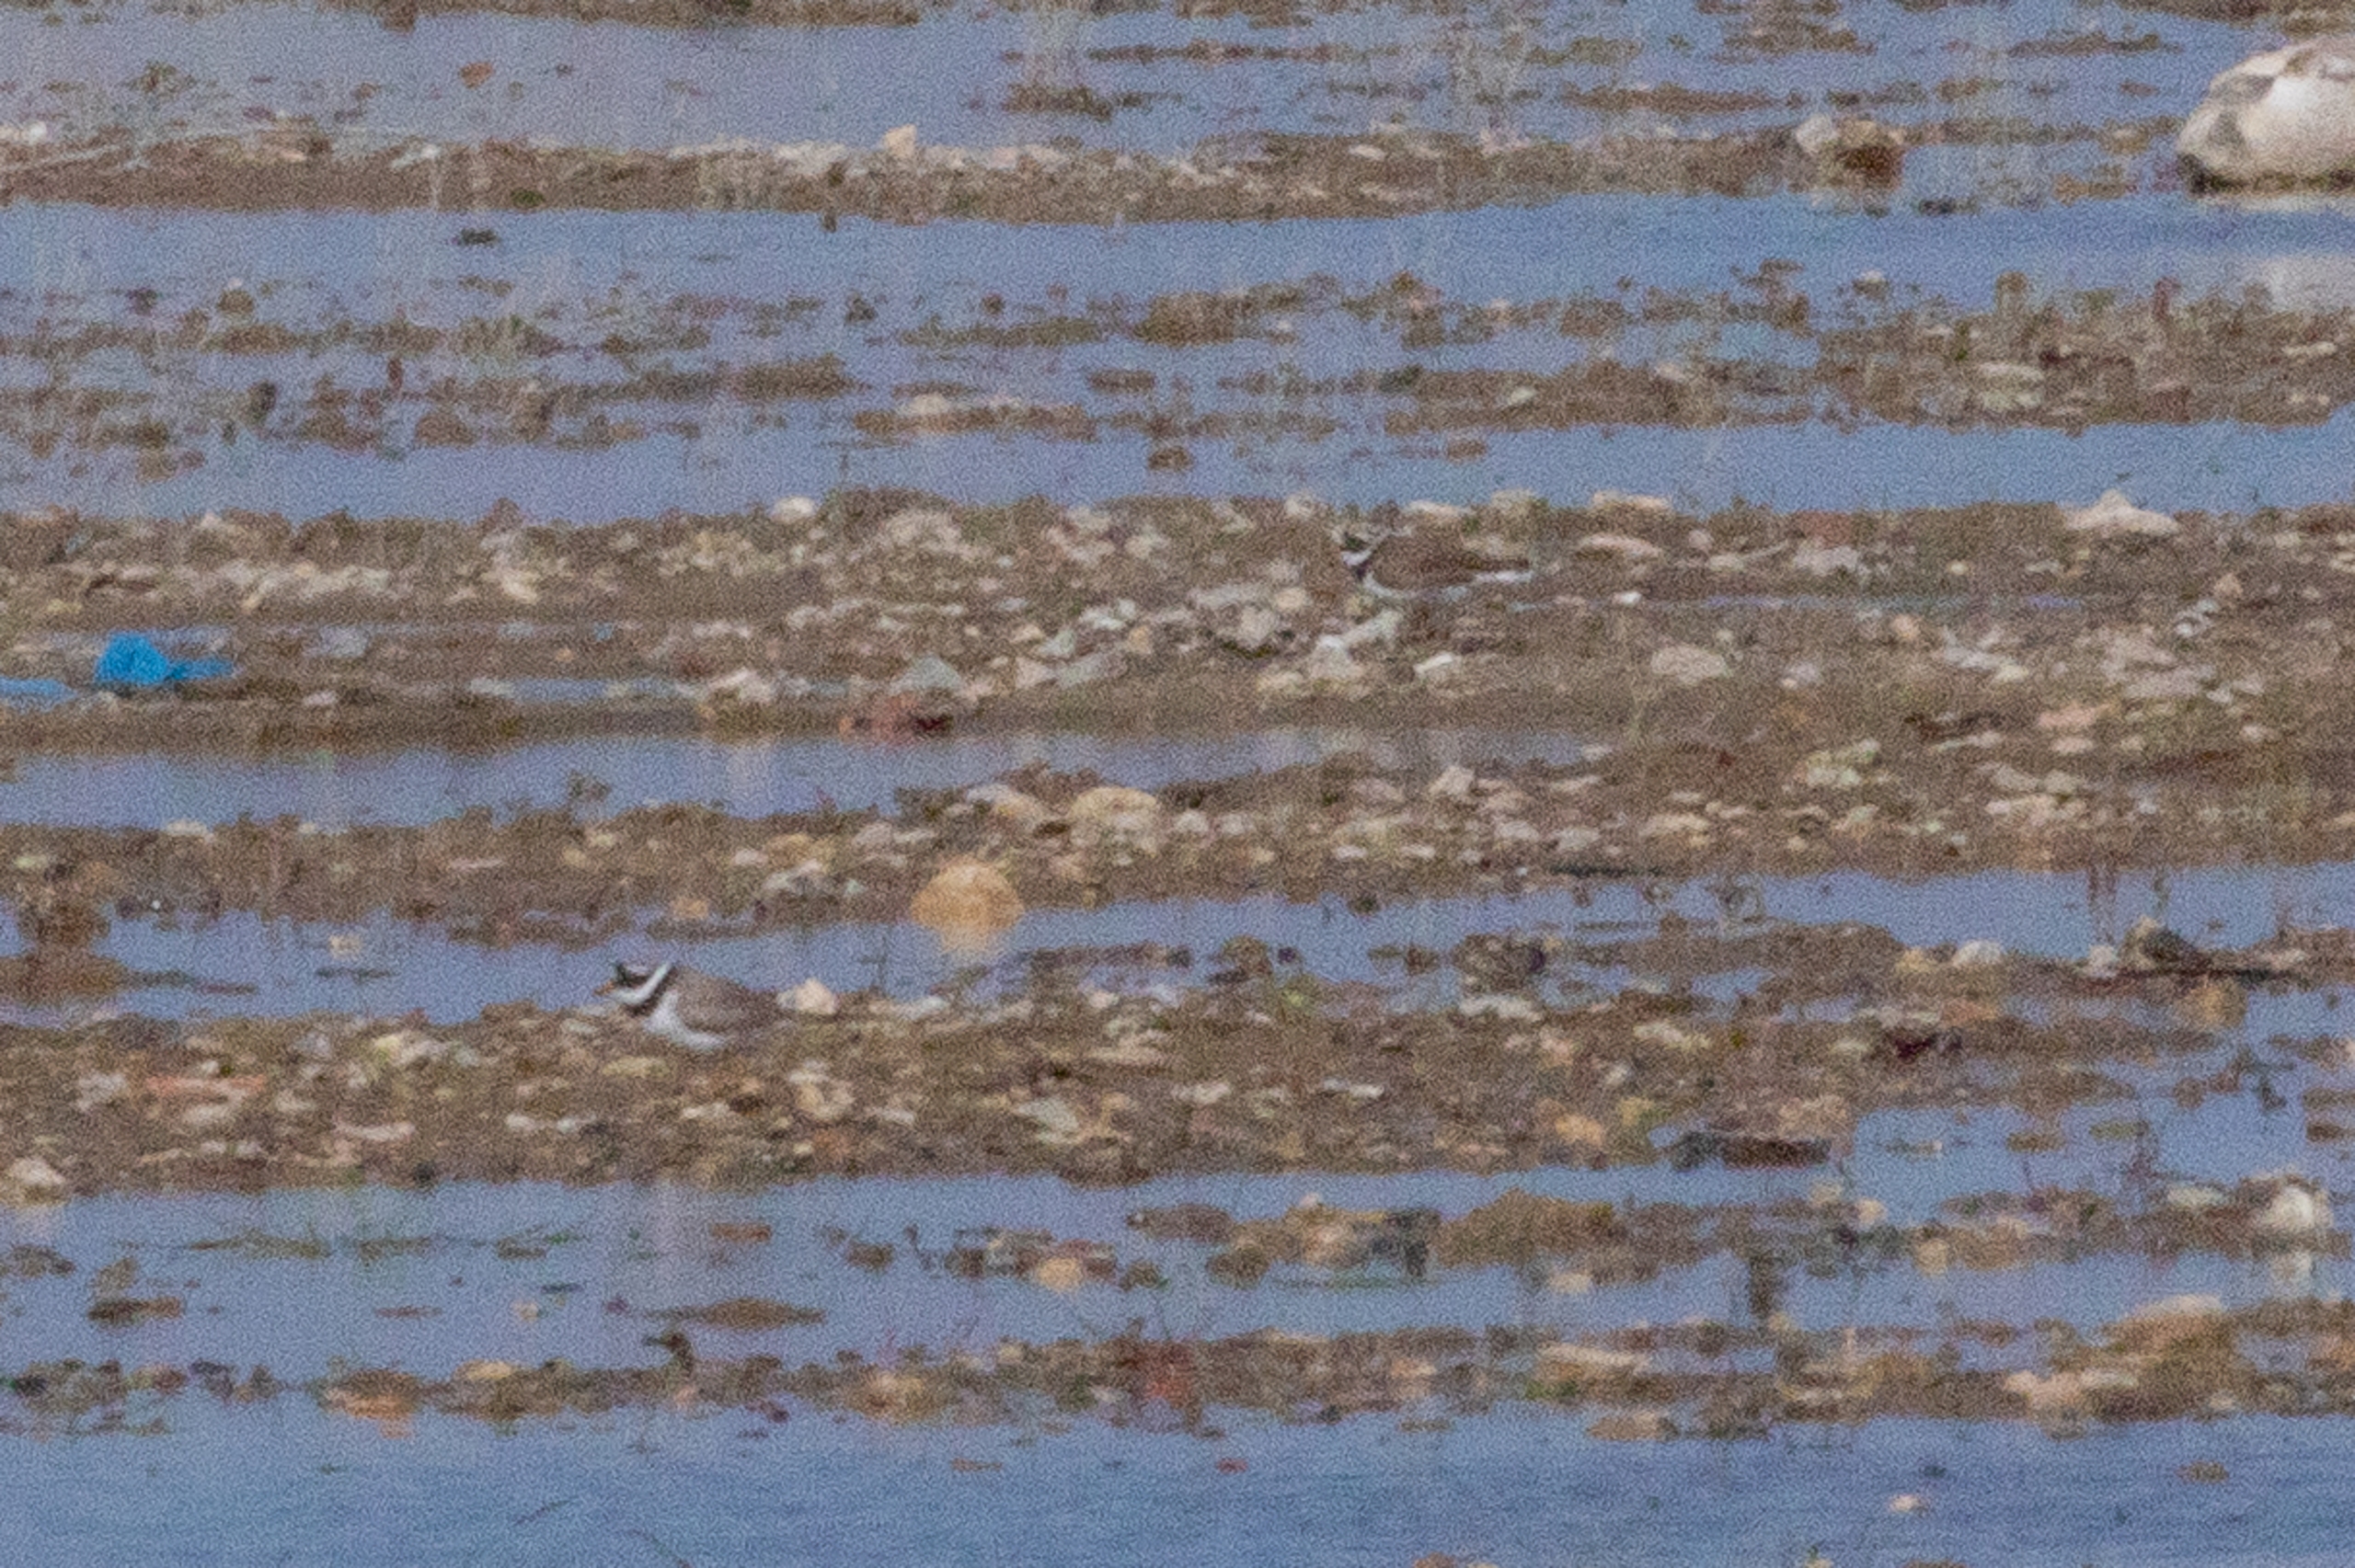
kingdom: Animalia
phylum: Chordata
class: Aves
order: Charadriiformes
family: Charadriidae
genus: Charadrius
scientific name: Charadrius hiaticula
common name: Stor præstekrave
